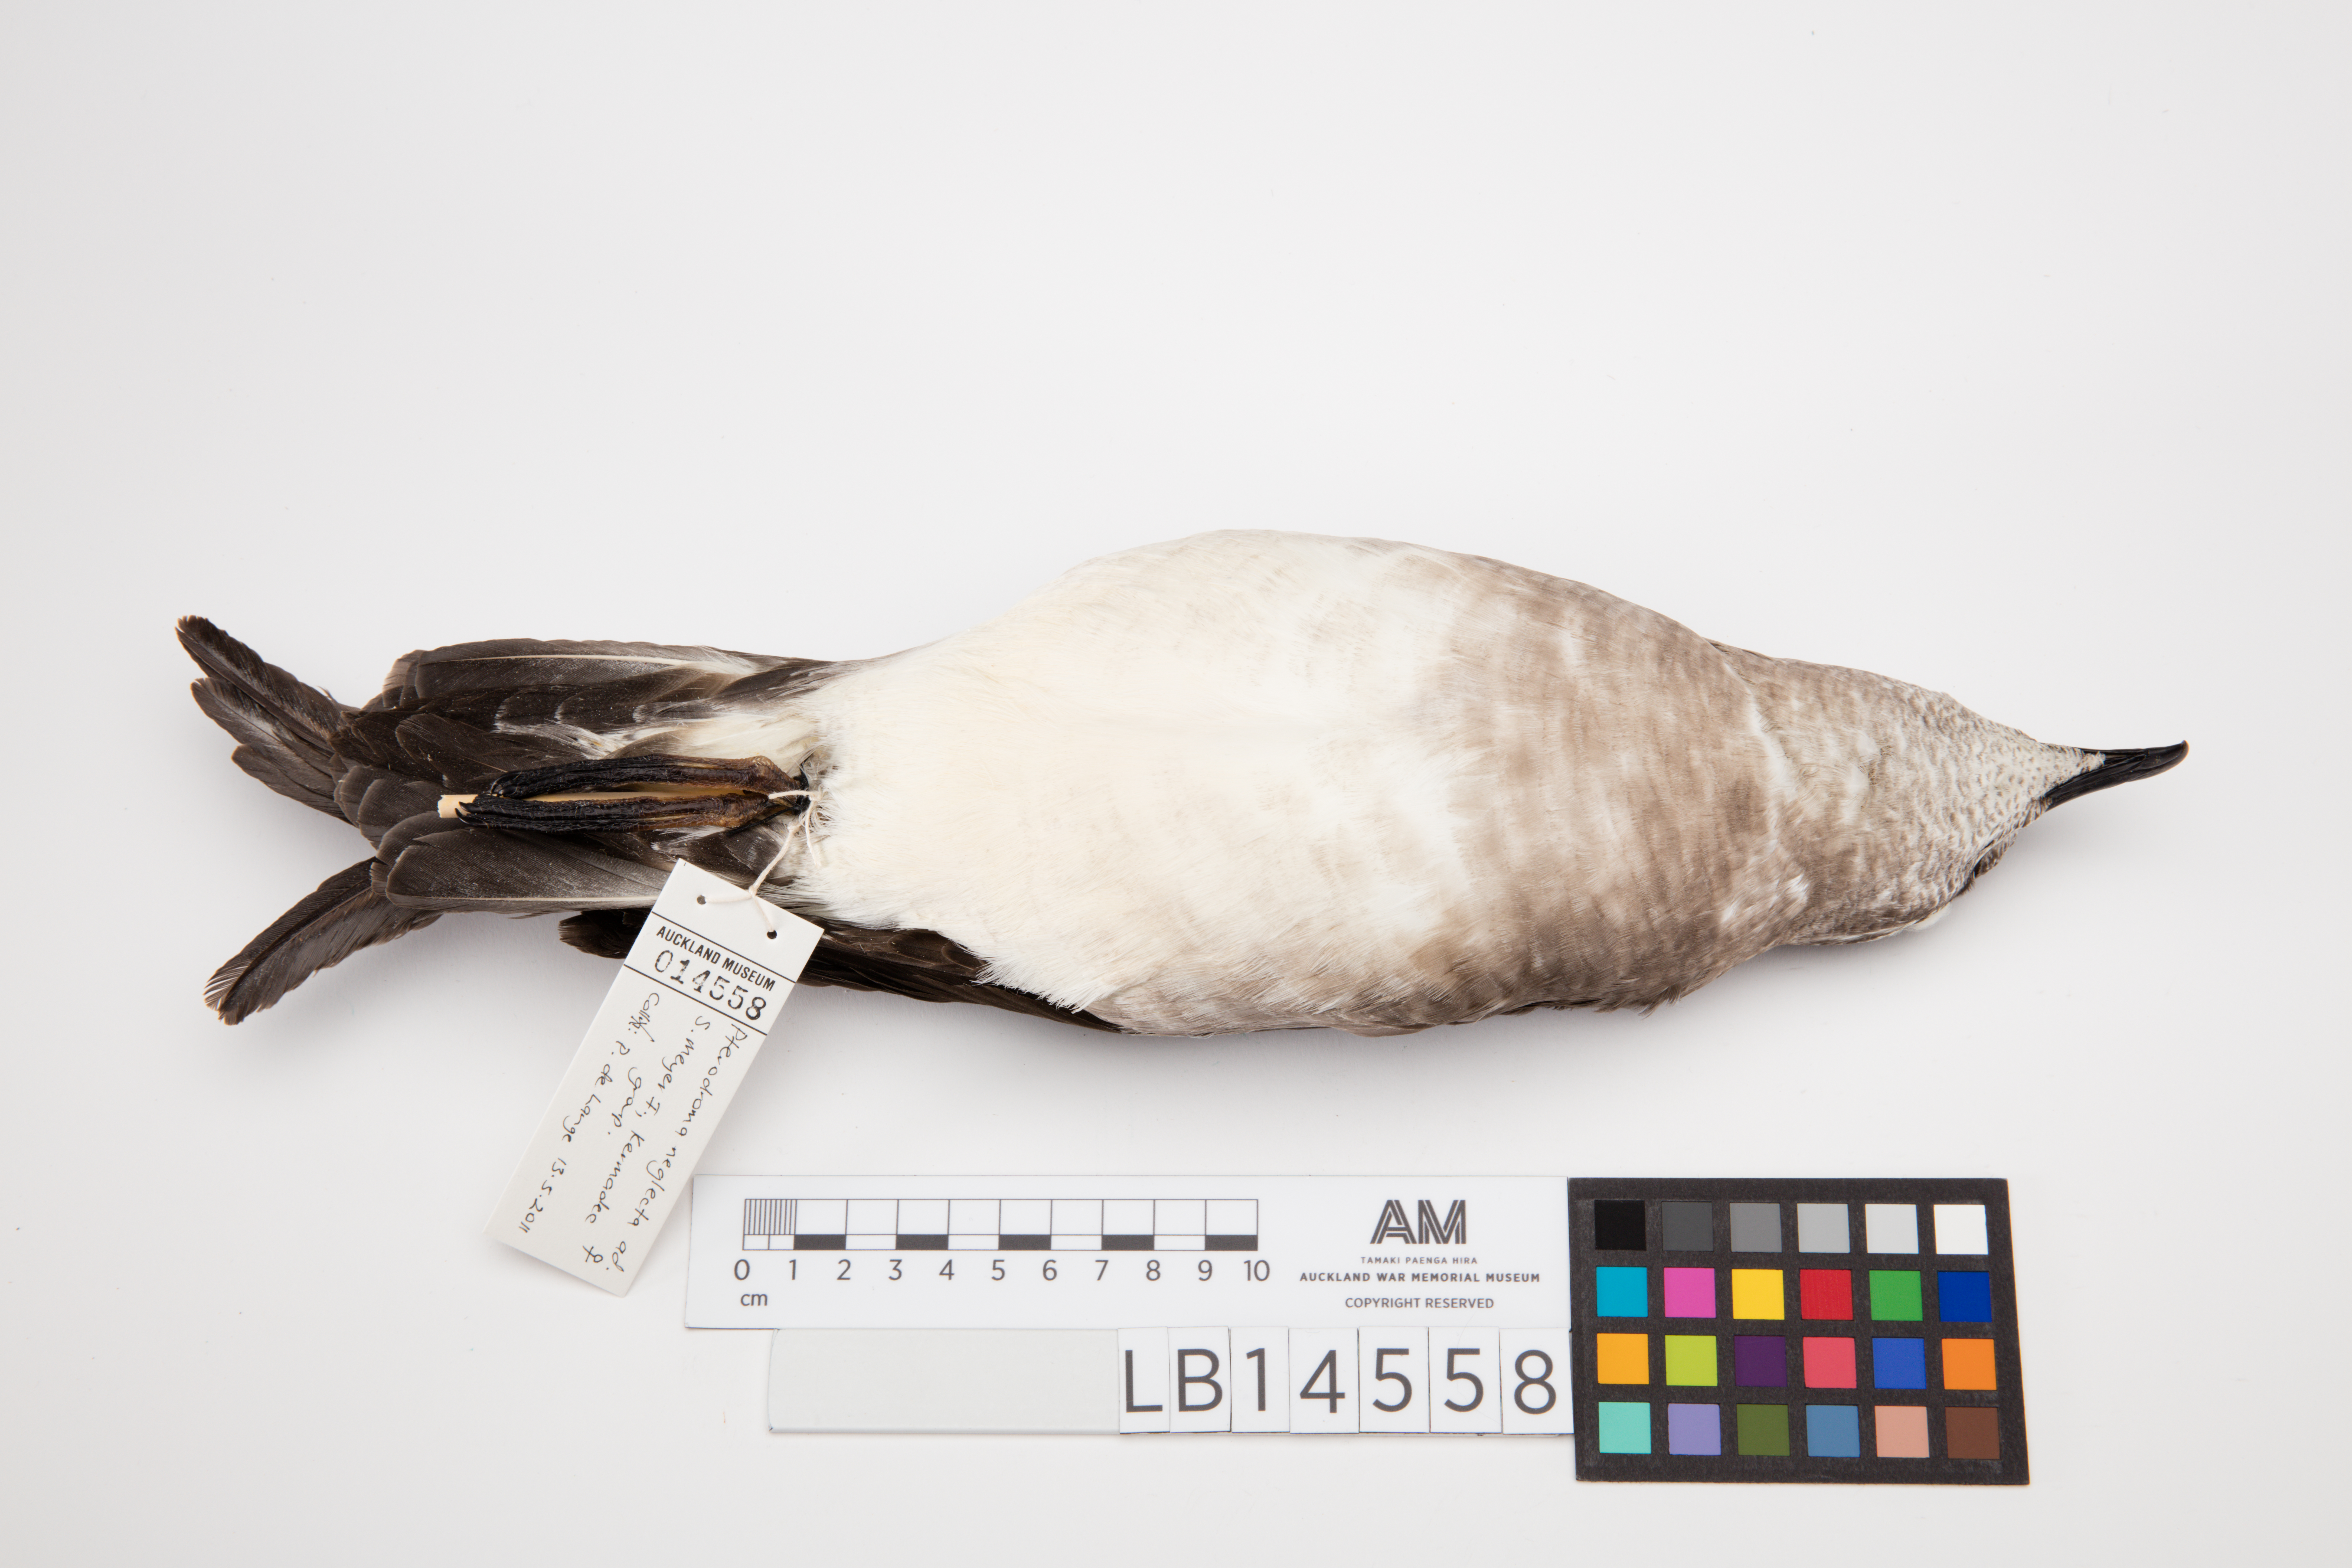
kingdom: Animalia
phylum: Chordata
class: Aves
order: Procellariiformes
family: Procellariidae
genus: Pterodroma
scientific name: Pterodroma neglecta
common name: Kermadec petrel
